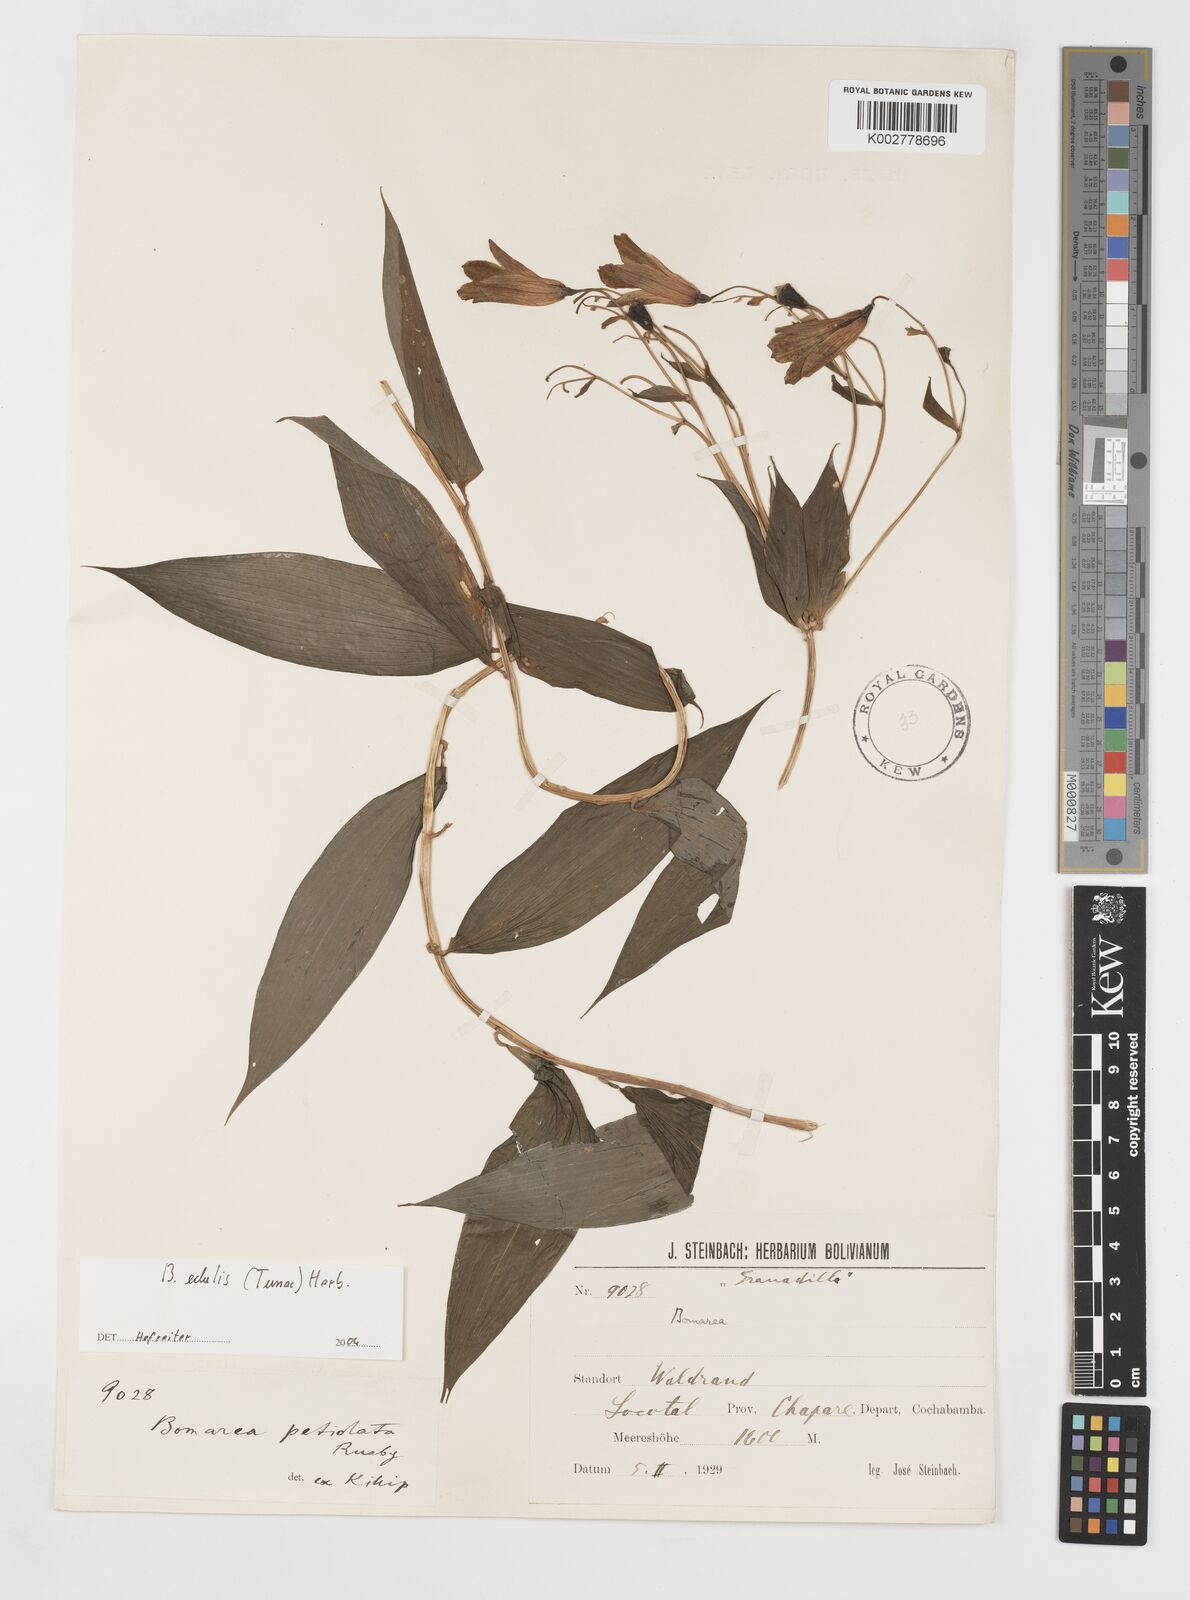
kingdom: Plantae
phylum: Tracheophyta
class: Liliopsida
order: Liliales
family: Alstroemeriaceae
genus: Bomarea
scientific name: Bomarea edulis
